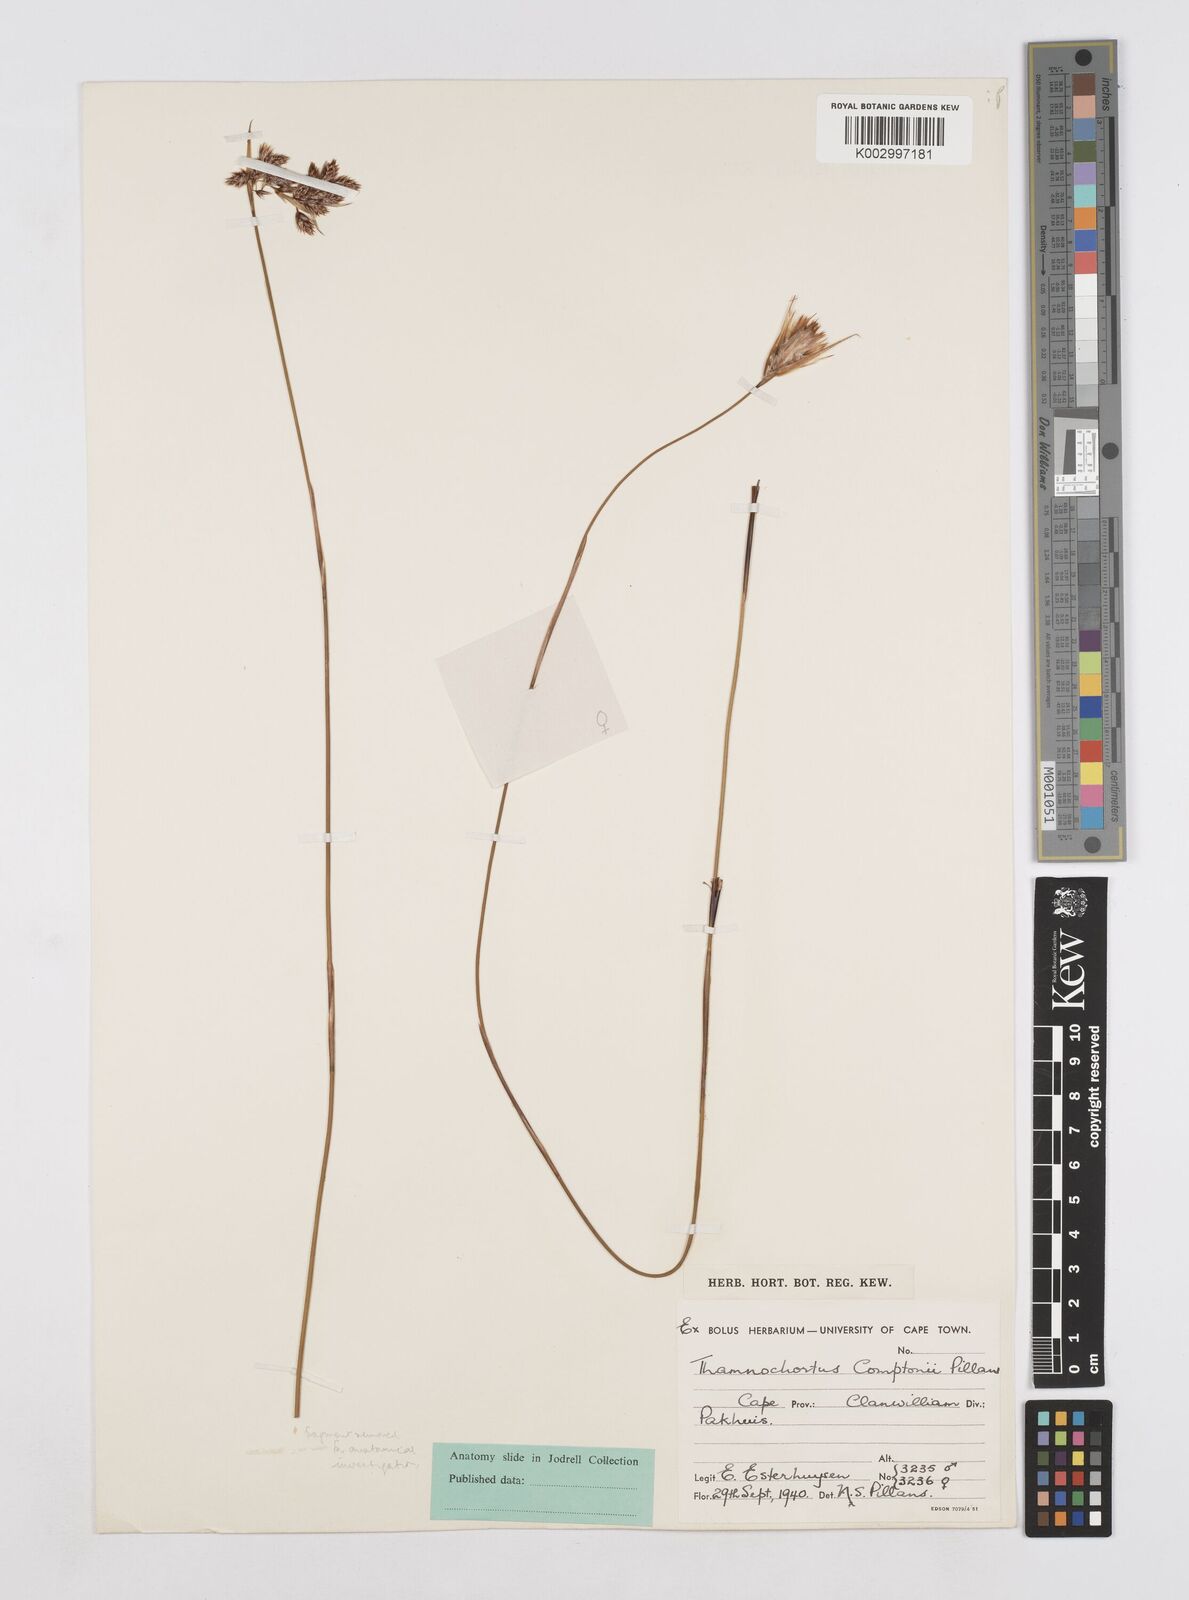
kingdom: Plantae
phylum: Tracheophyta
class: Liliopsida
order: Poales
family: Restionaceae
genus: Thamnochortus
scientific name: Thamnochortus platypteris
